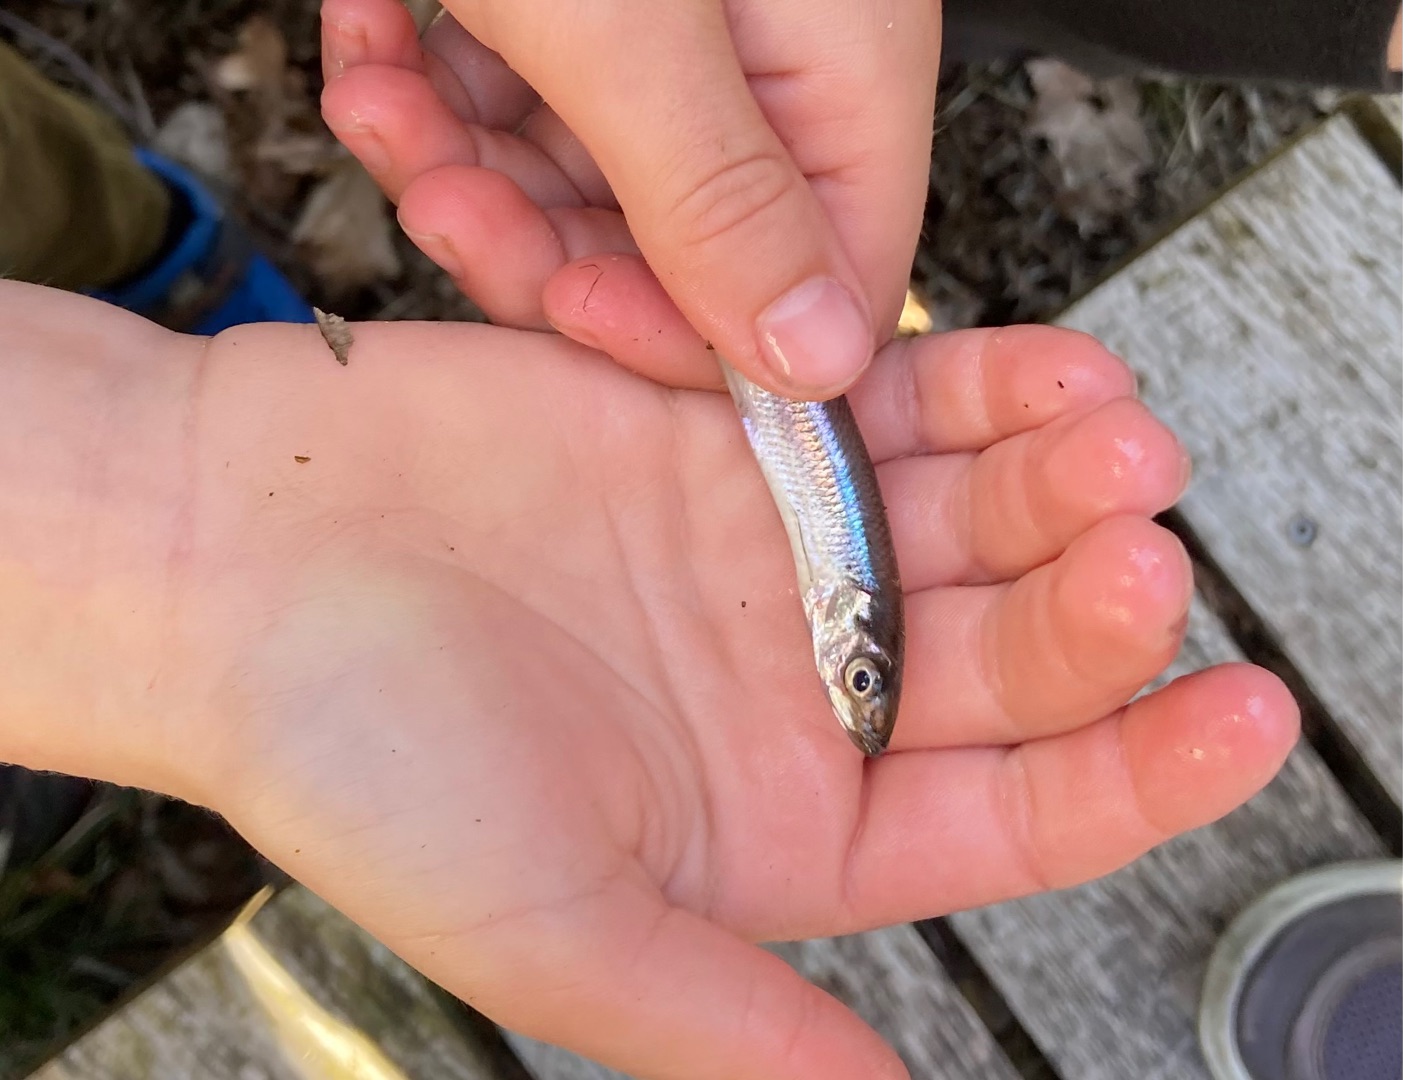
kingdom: Animalia
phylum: Chordata
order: Osmeriformes
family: Osmeridae
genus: Osmerus
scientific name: Osmerus eperlanus
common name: Smelt
